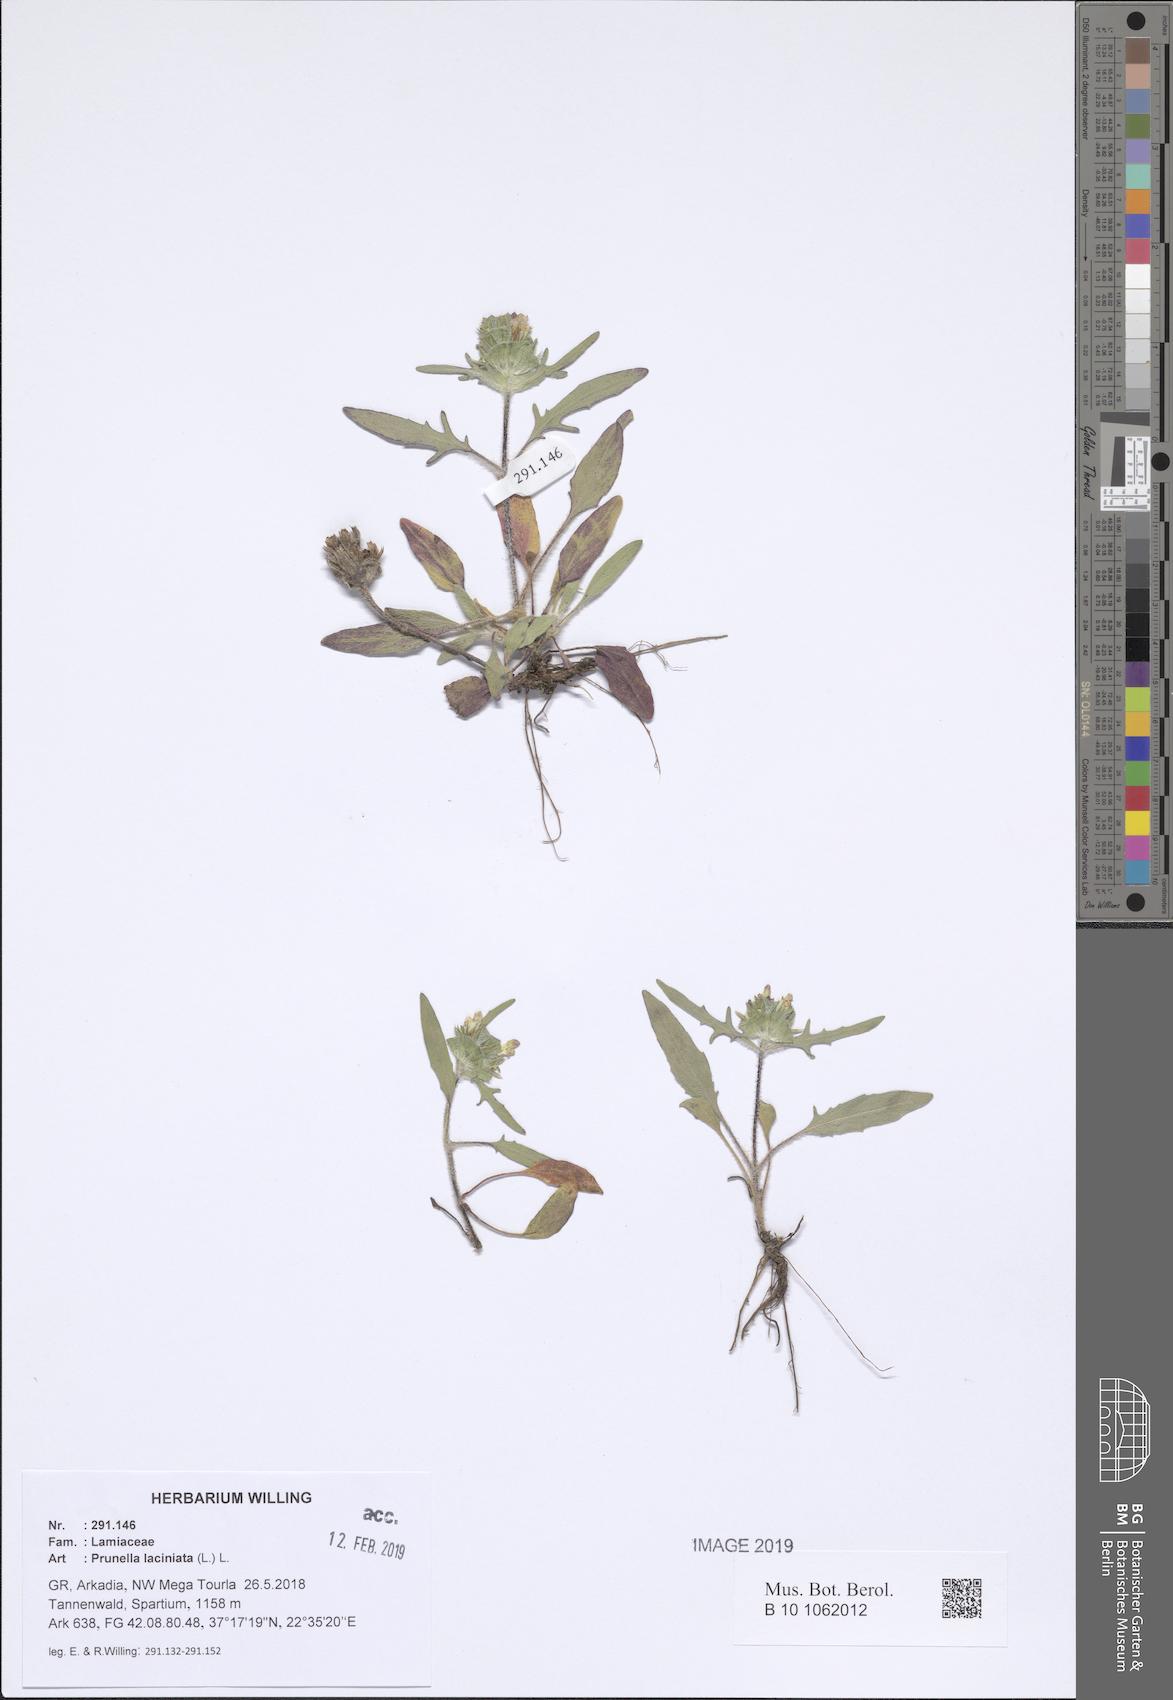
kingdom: Plantae
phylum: Tracheophyta
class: Magnoliopsida
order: Lamiales
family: Lamiaceae
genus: Prunella
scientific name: Prunella laciniata
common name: Cut-leaved selfheal
